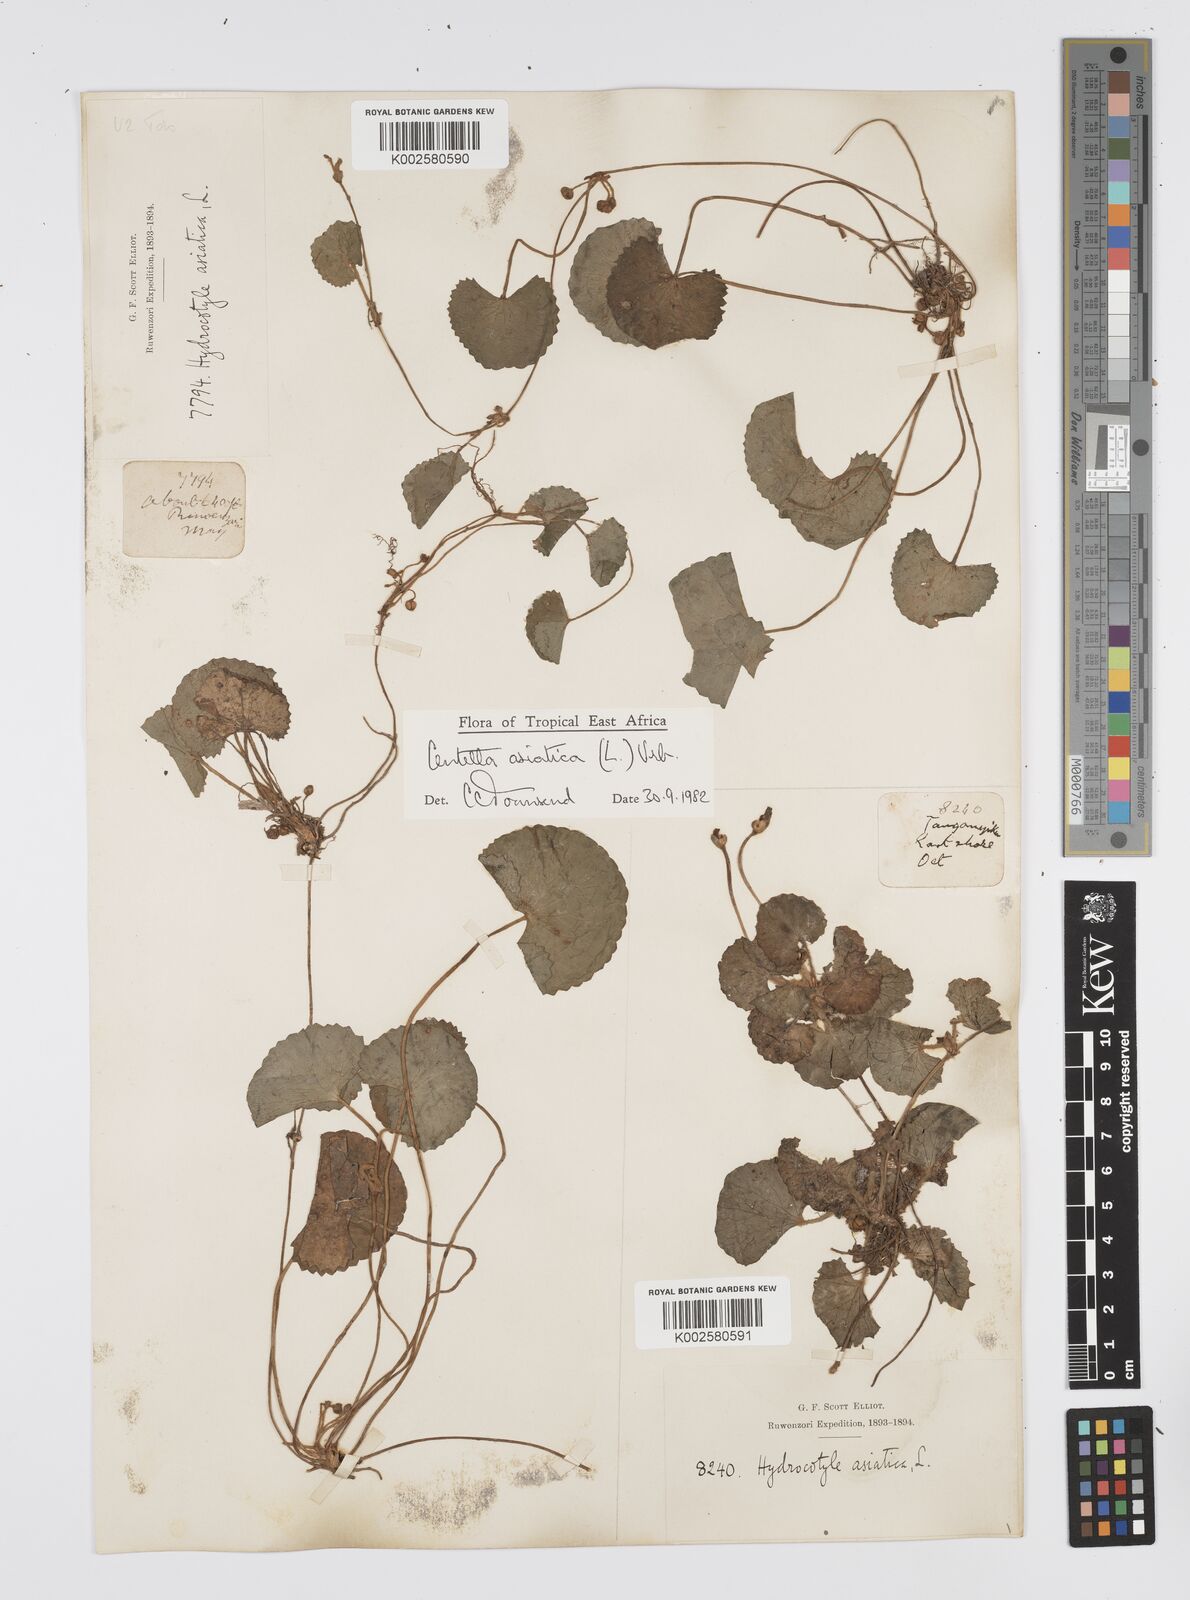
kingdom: Plantae
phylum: Tracheophyta
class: Magnoliopsida
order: Apiales
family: Apiaceae
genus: Centella
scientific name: Centella asiatica
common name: Spadeleaf
